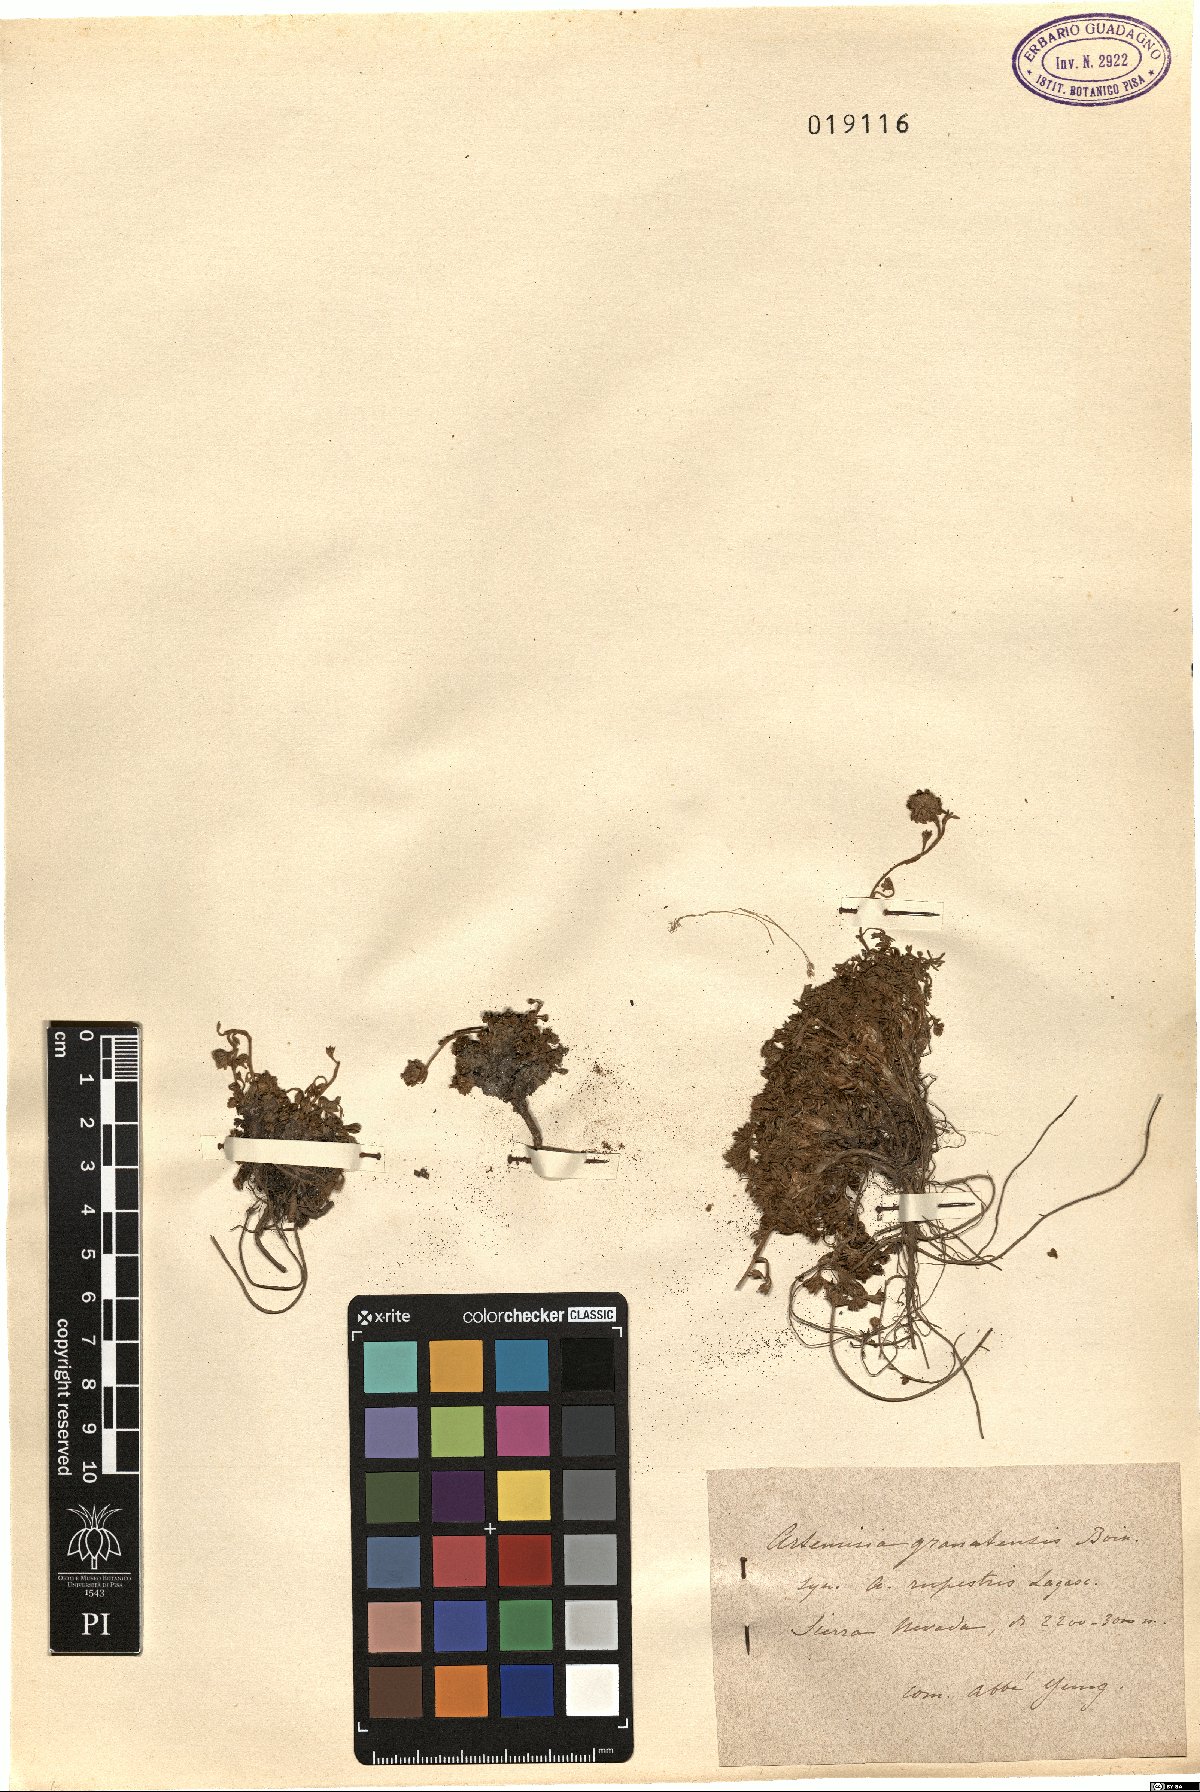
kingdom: Plantae
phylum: Tracheophyta
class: Magnoliopsida
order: Asterales
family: Asteraceae
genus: Artemisia
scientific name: Artemisia granatensis
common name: Royal chamomile
